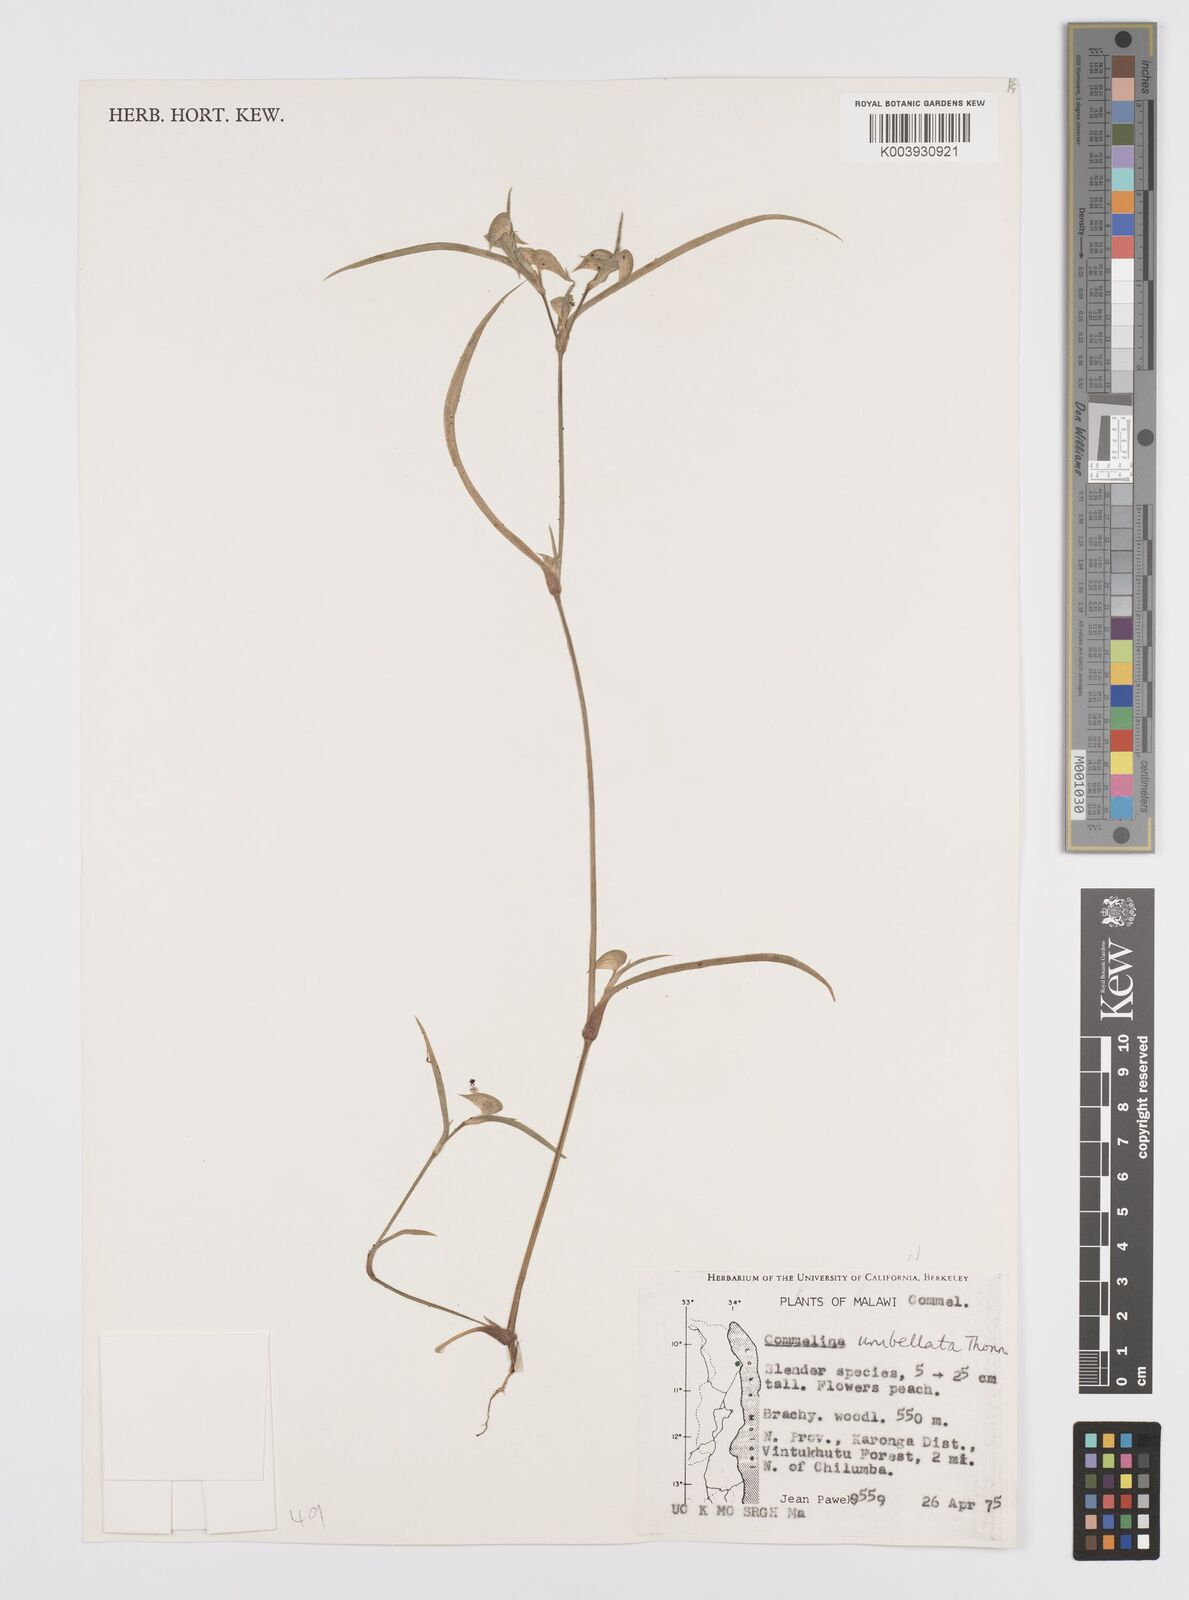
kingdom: Plantae
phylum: Tracheophyta
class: Liliopsida
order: Commelinales
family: Commelinaceae
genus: Commelina
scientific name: Commelina nigritana
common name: African dayflower
